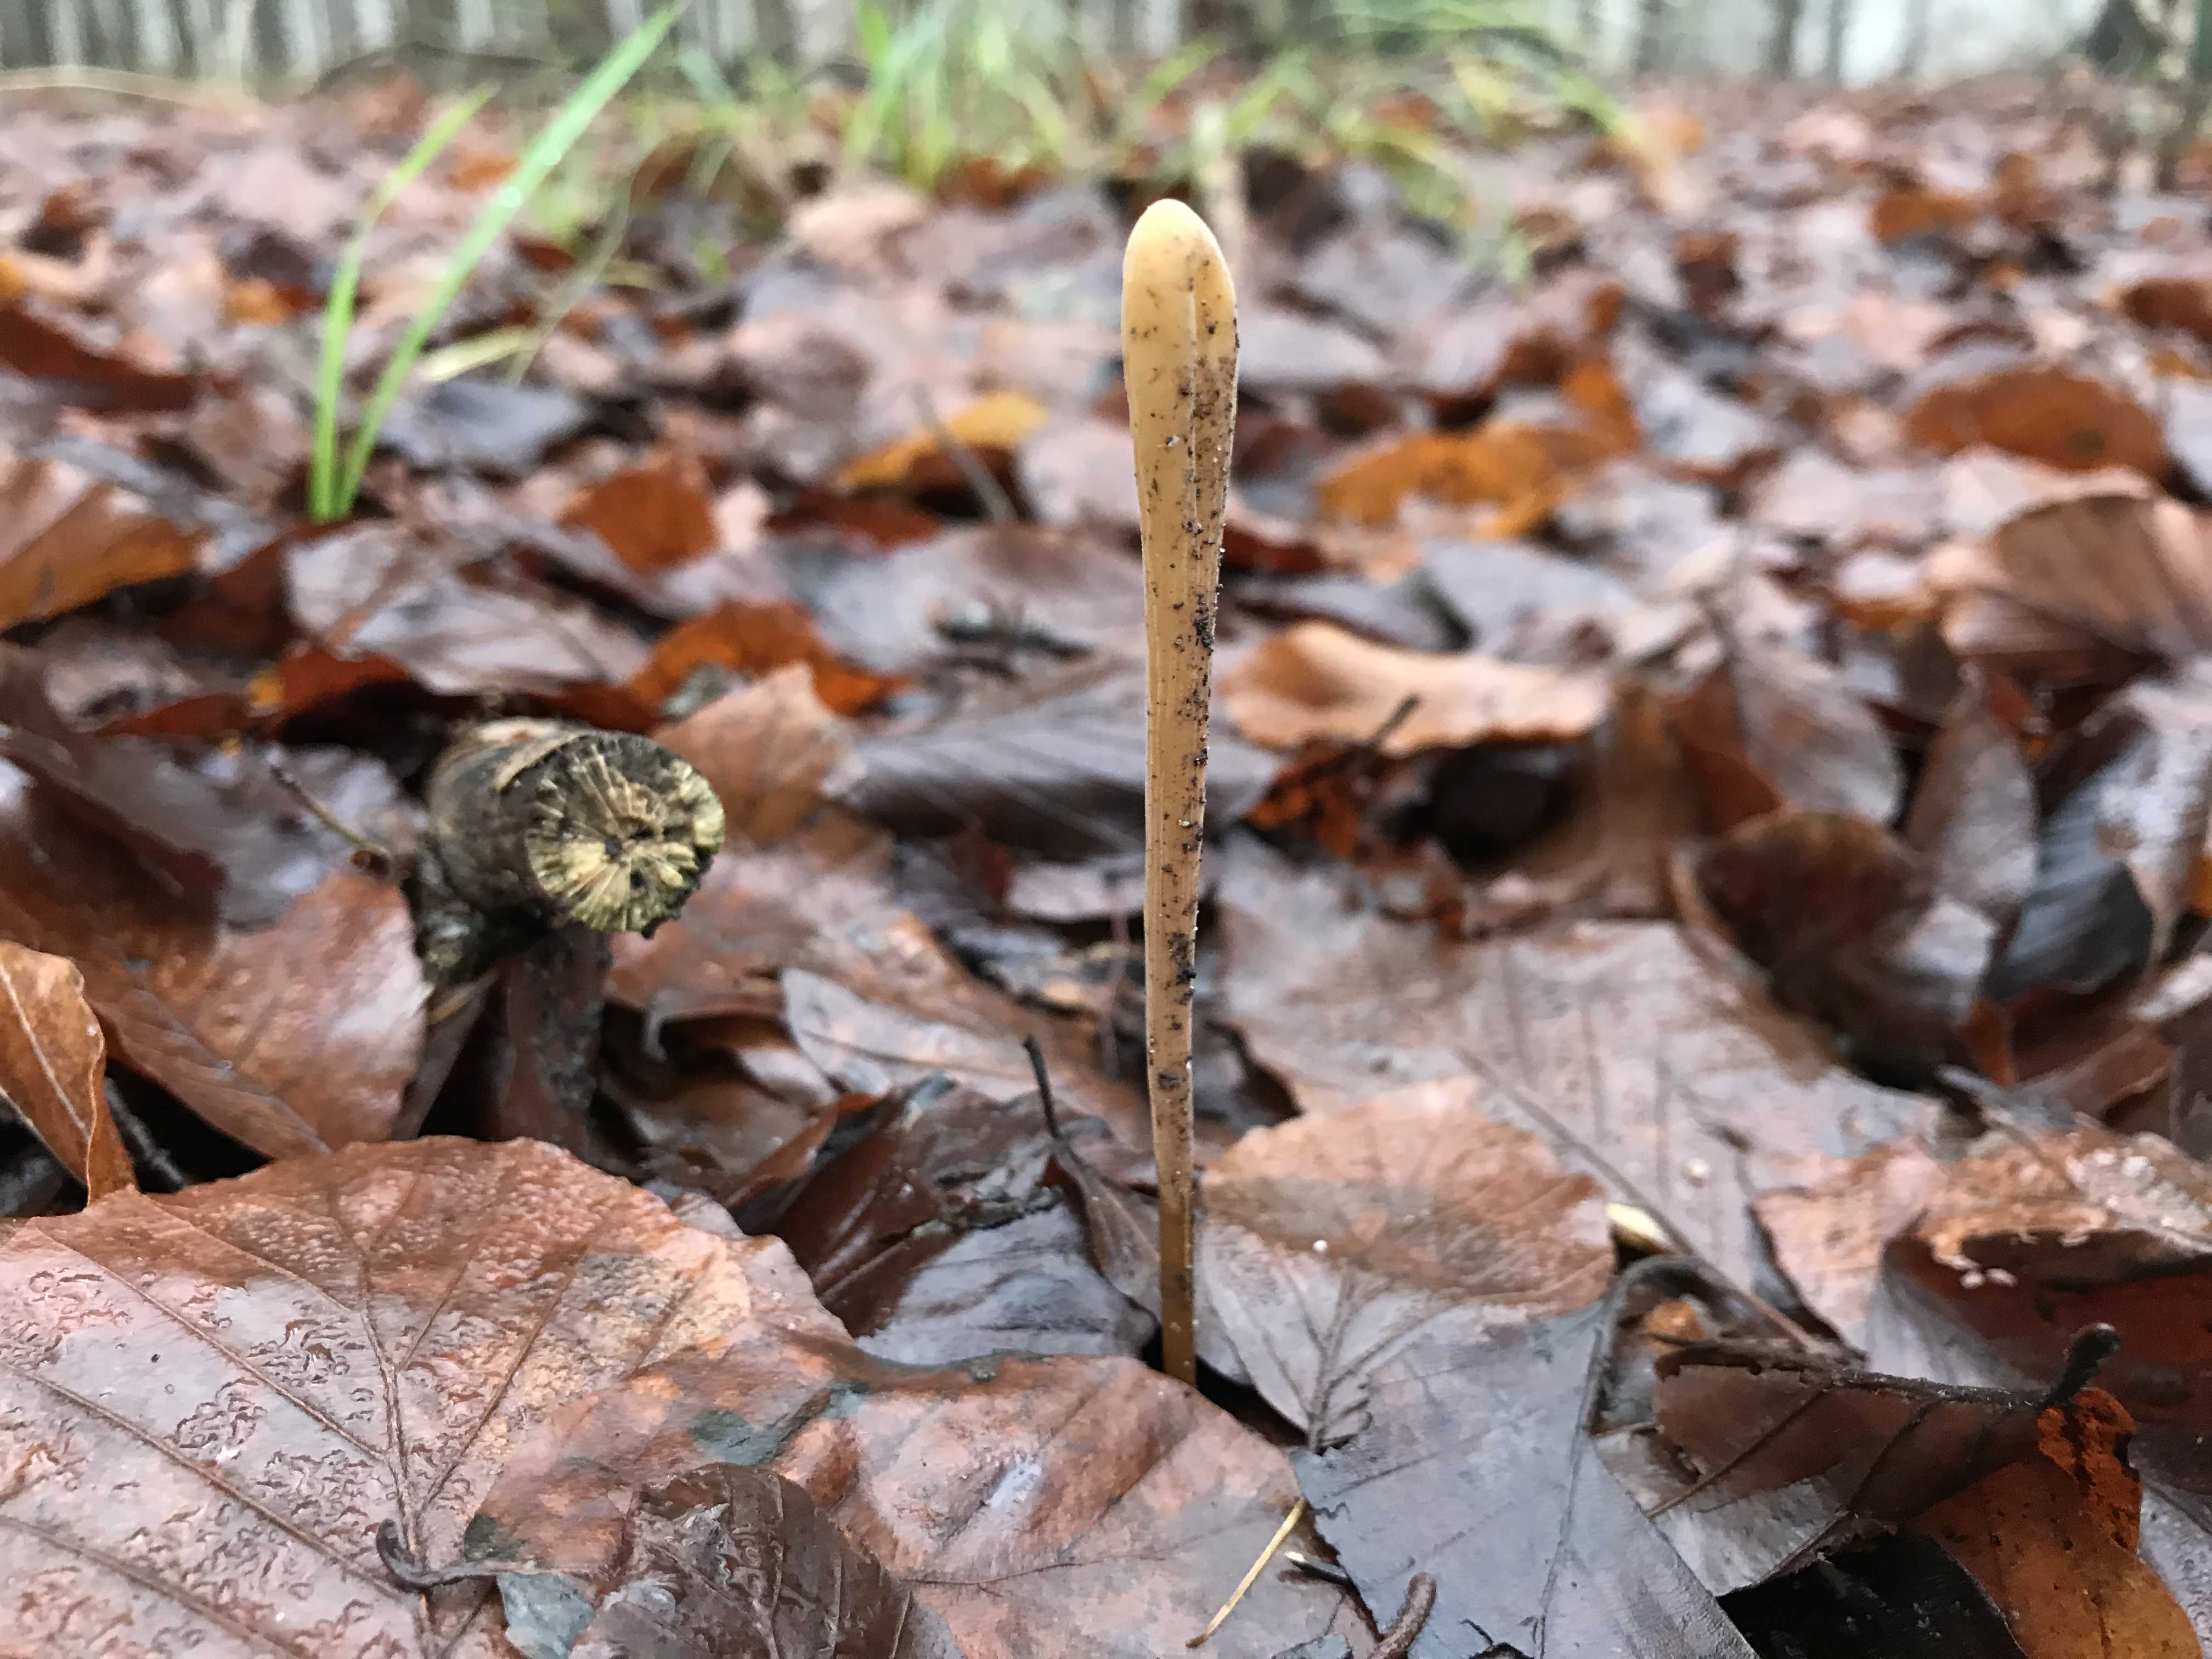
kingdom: Fungi
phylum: Basidiomycota
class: Agaricomycetes
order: Agaricales
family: Typhulaceae
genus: Typhula
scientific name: Typhula fistulosa
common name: pibet rørkølle
